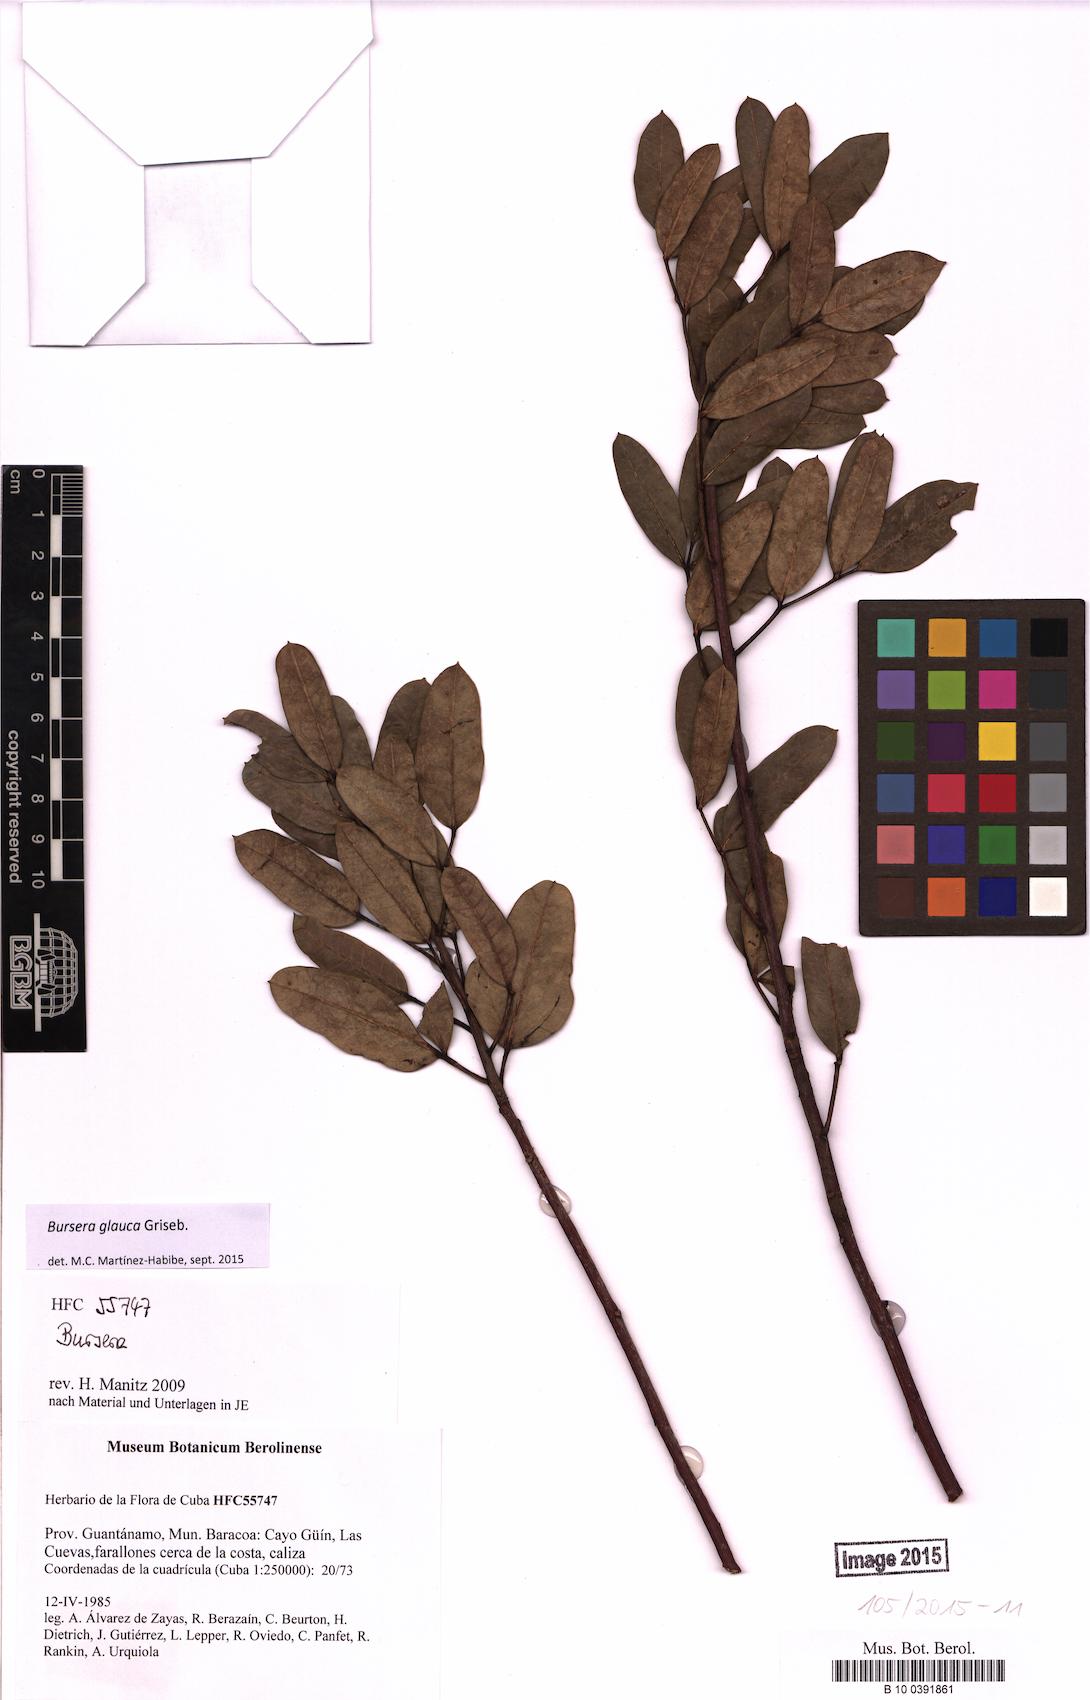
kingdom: Plantae
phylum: Tracheophyta
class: Magnoliopsida
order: Sapindales
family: Burseraceae
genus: Bursera
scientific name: Bursera glauca
